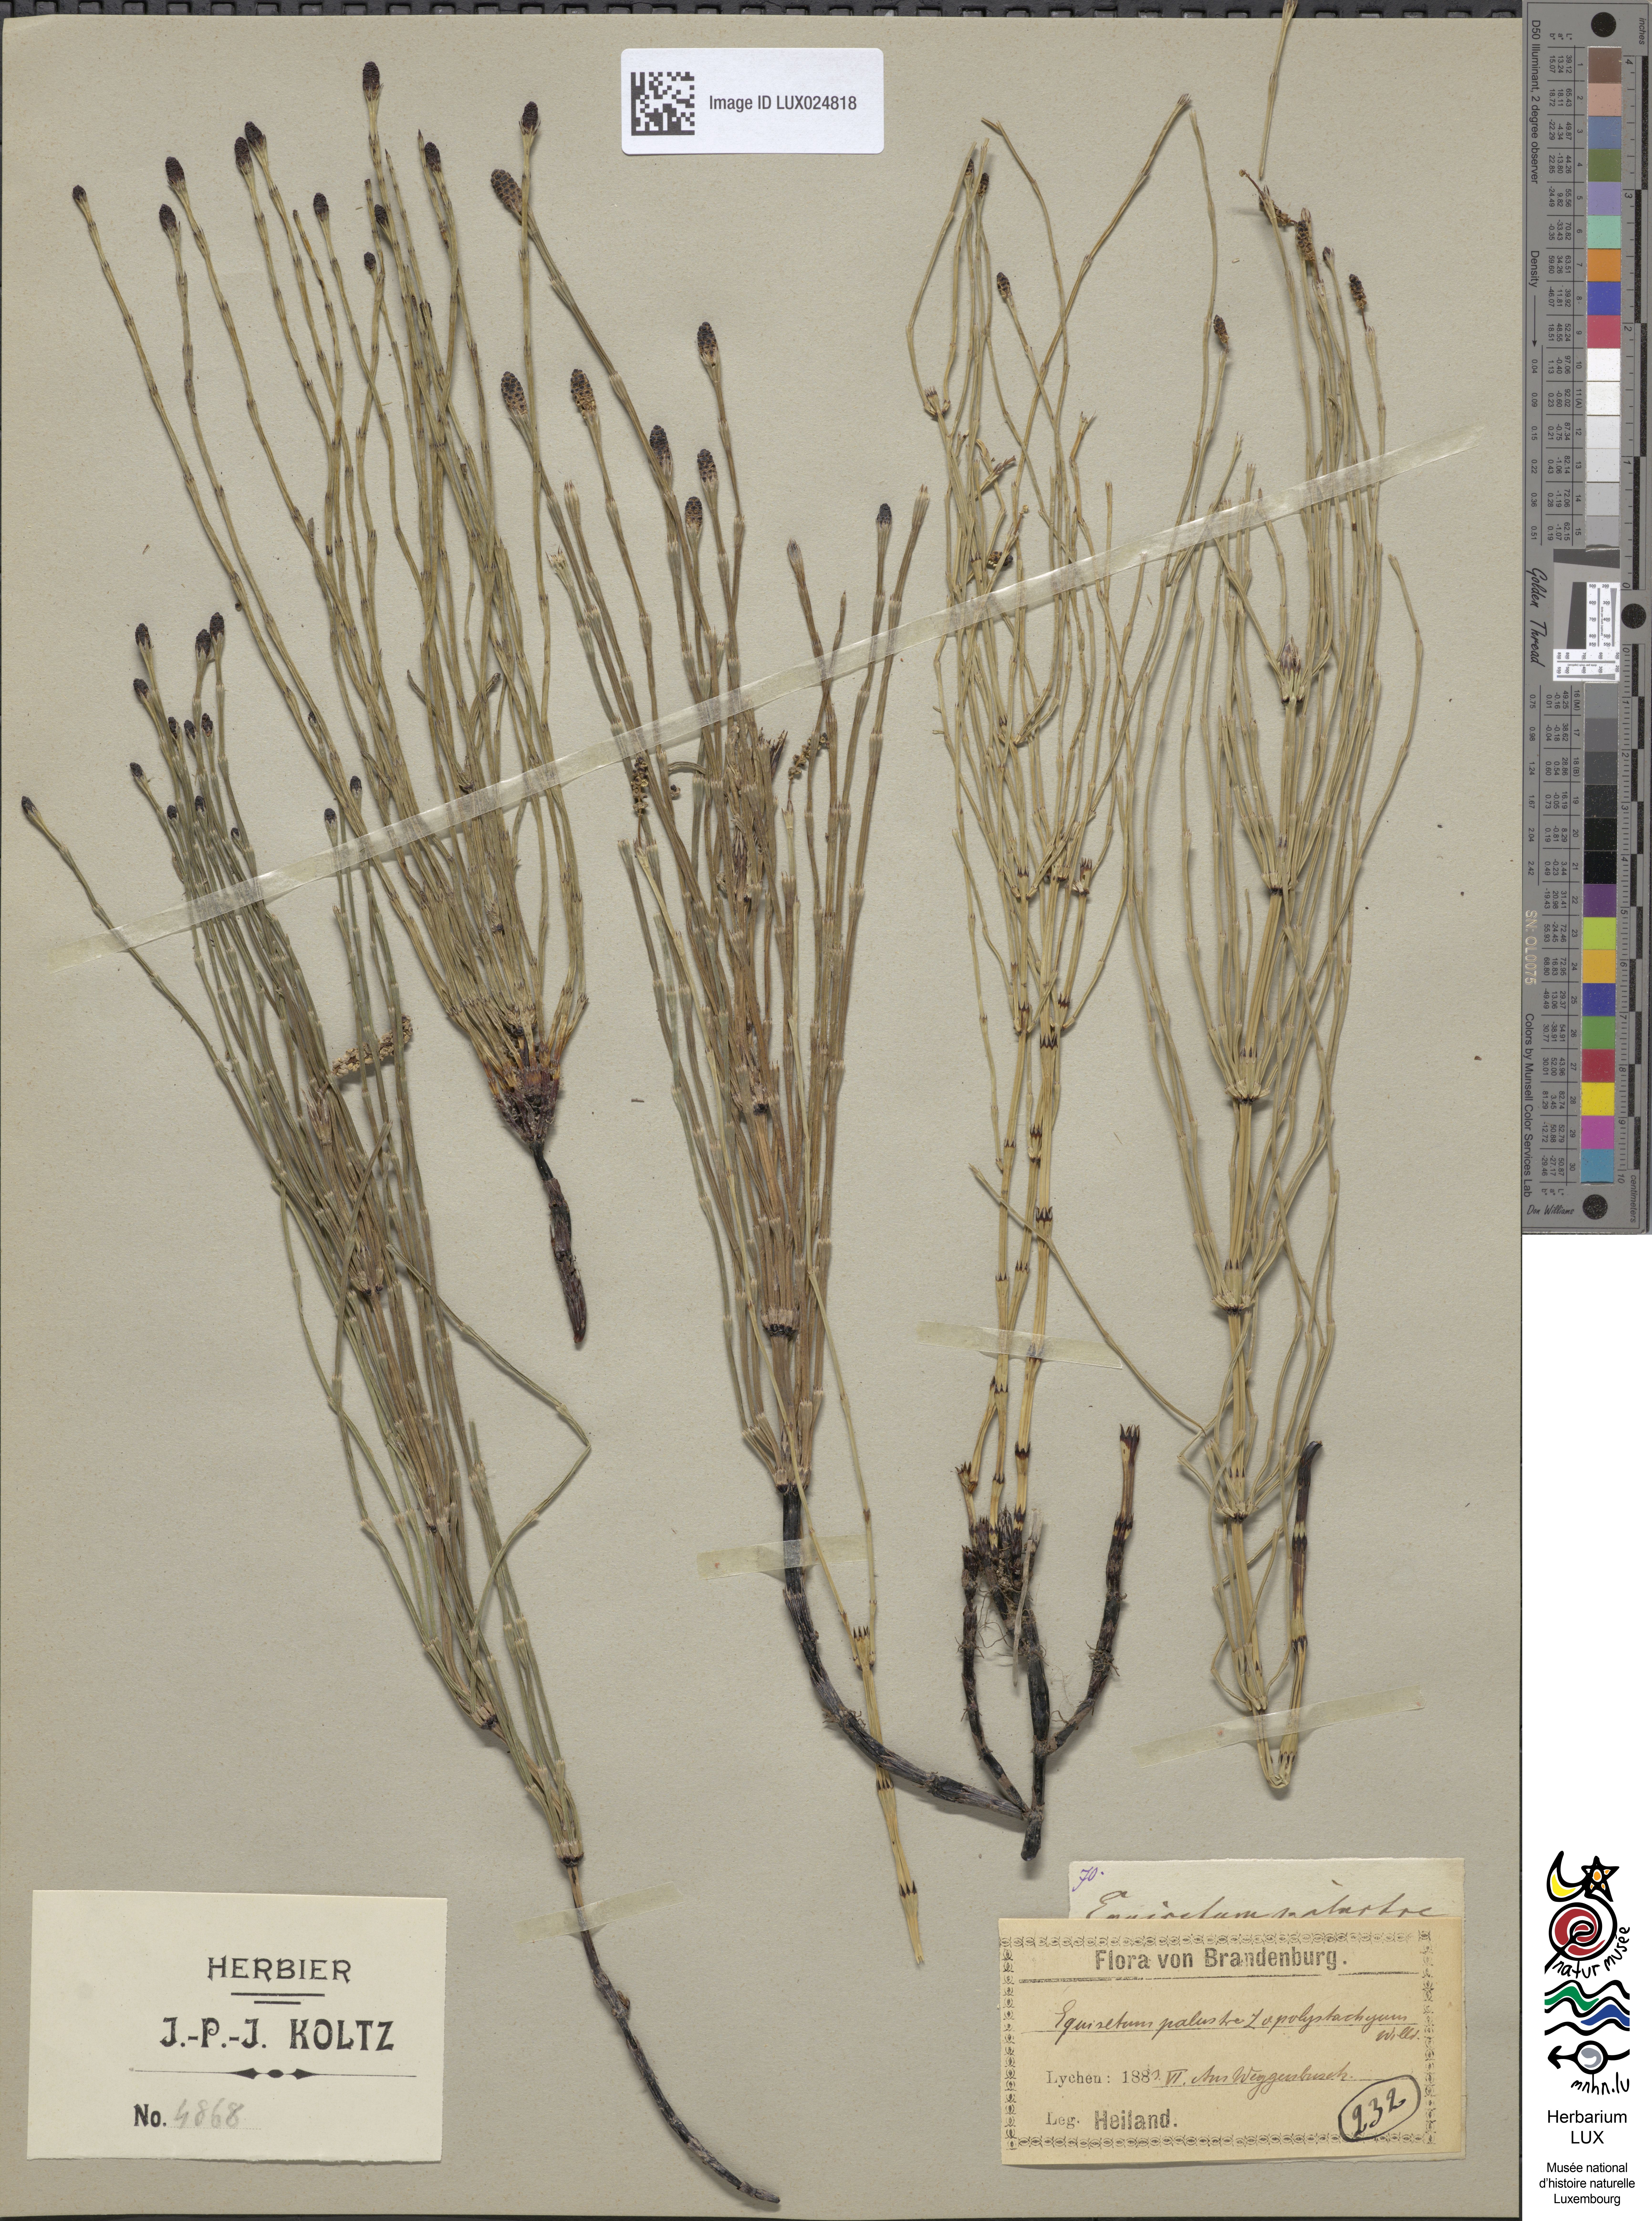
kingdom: Plantae
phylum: Tracheophyta
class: Polypodiopsida
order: Equisetales
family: Equisetaceae
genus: Equisetum
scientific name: Equisetum palustre
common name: Marsh horsetail
